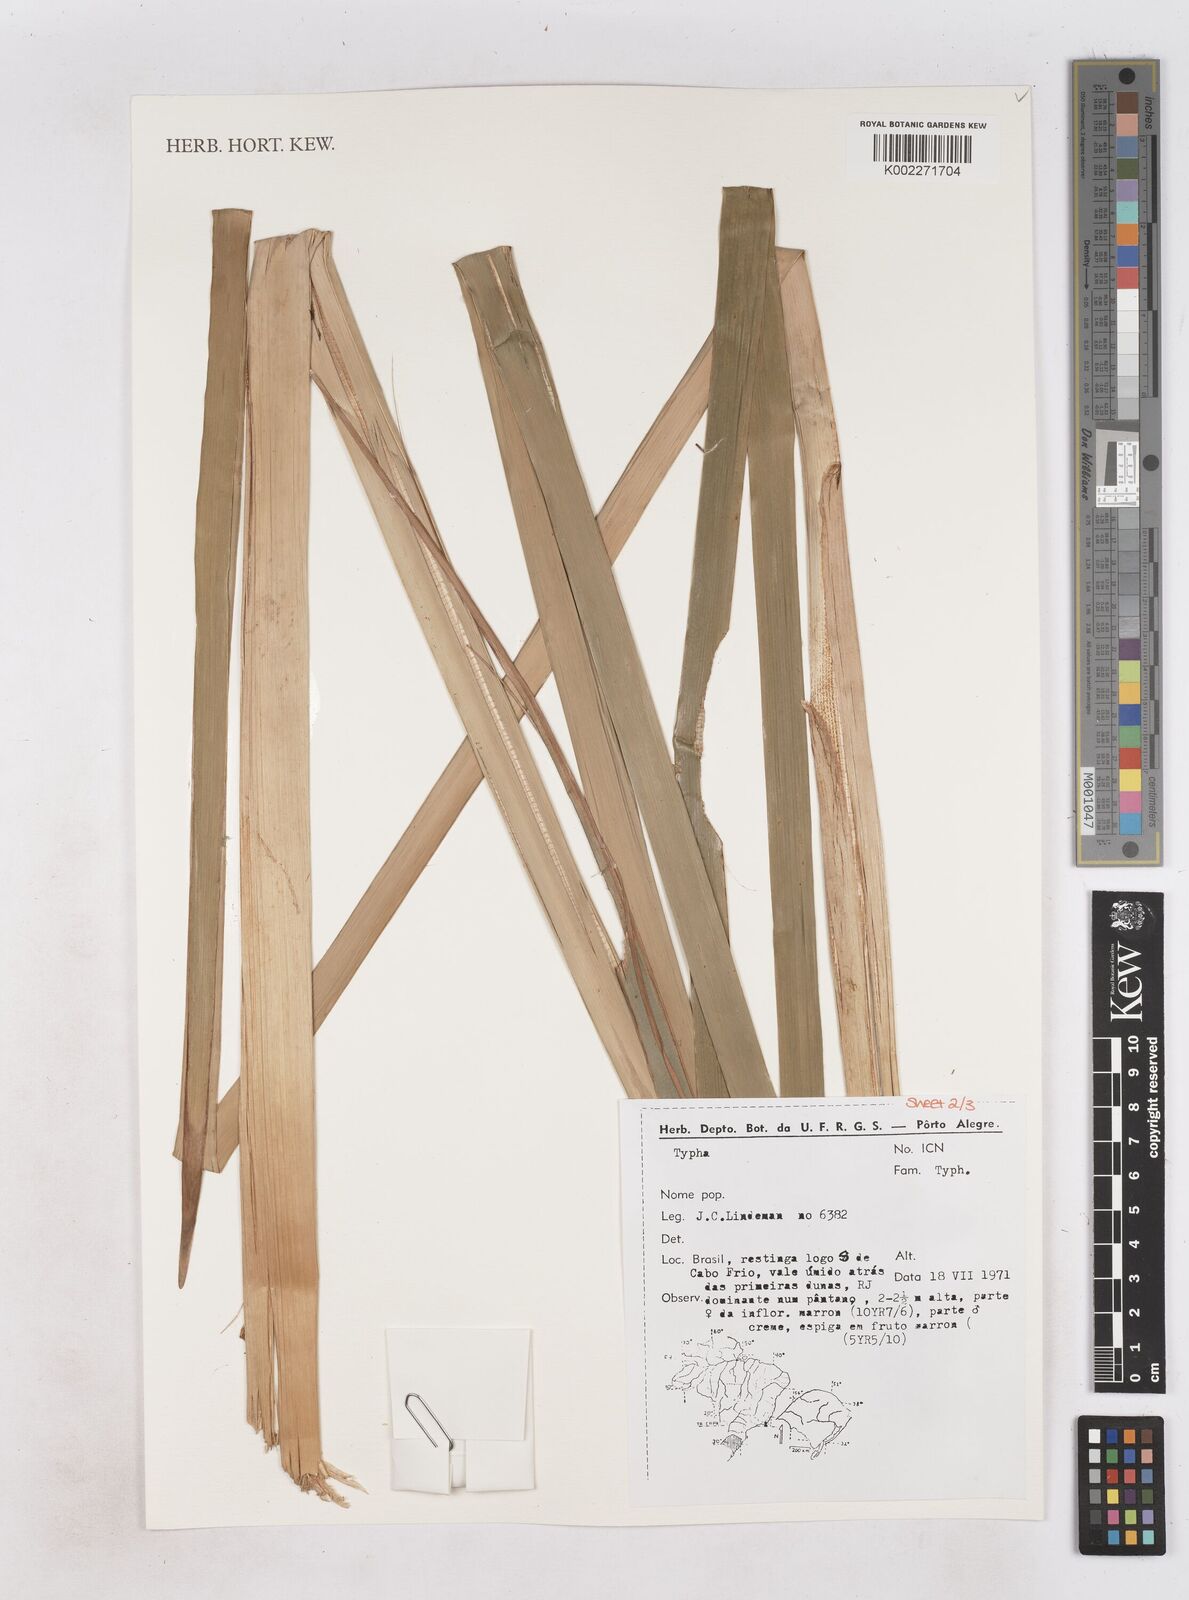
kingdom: Plantae
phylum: Tracheophyta
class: Liliopsida
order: Poales
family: Typhaceae
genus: Typha
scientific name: Typha
